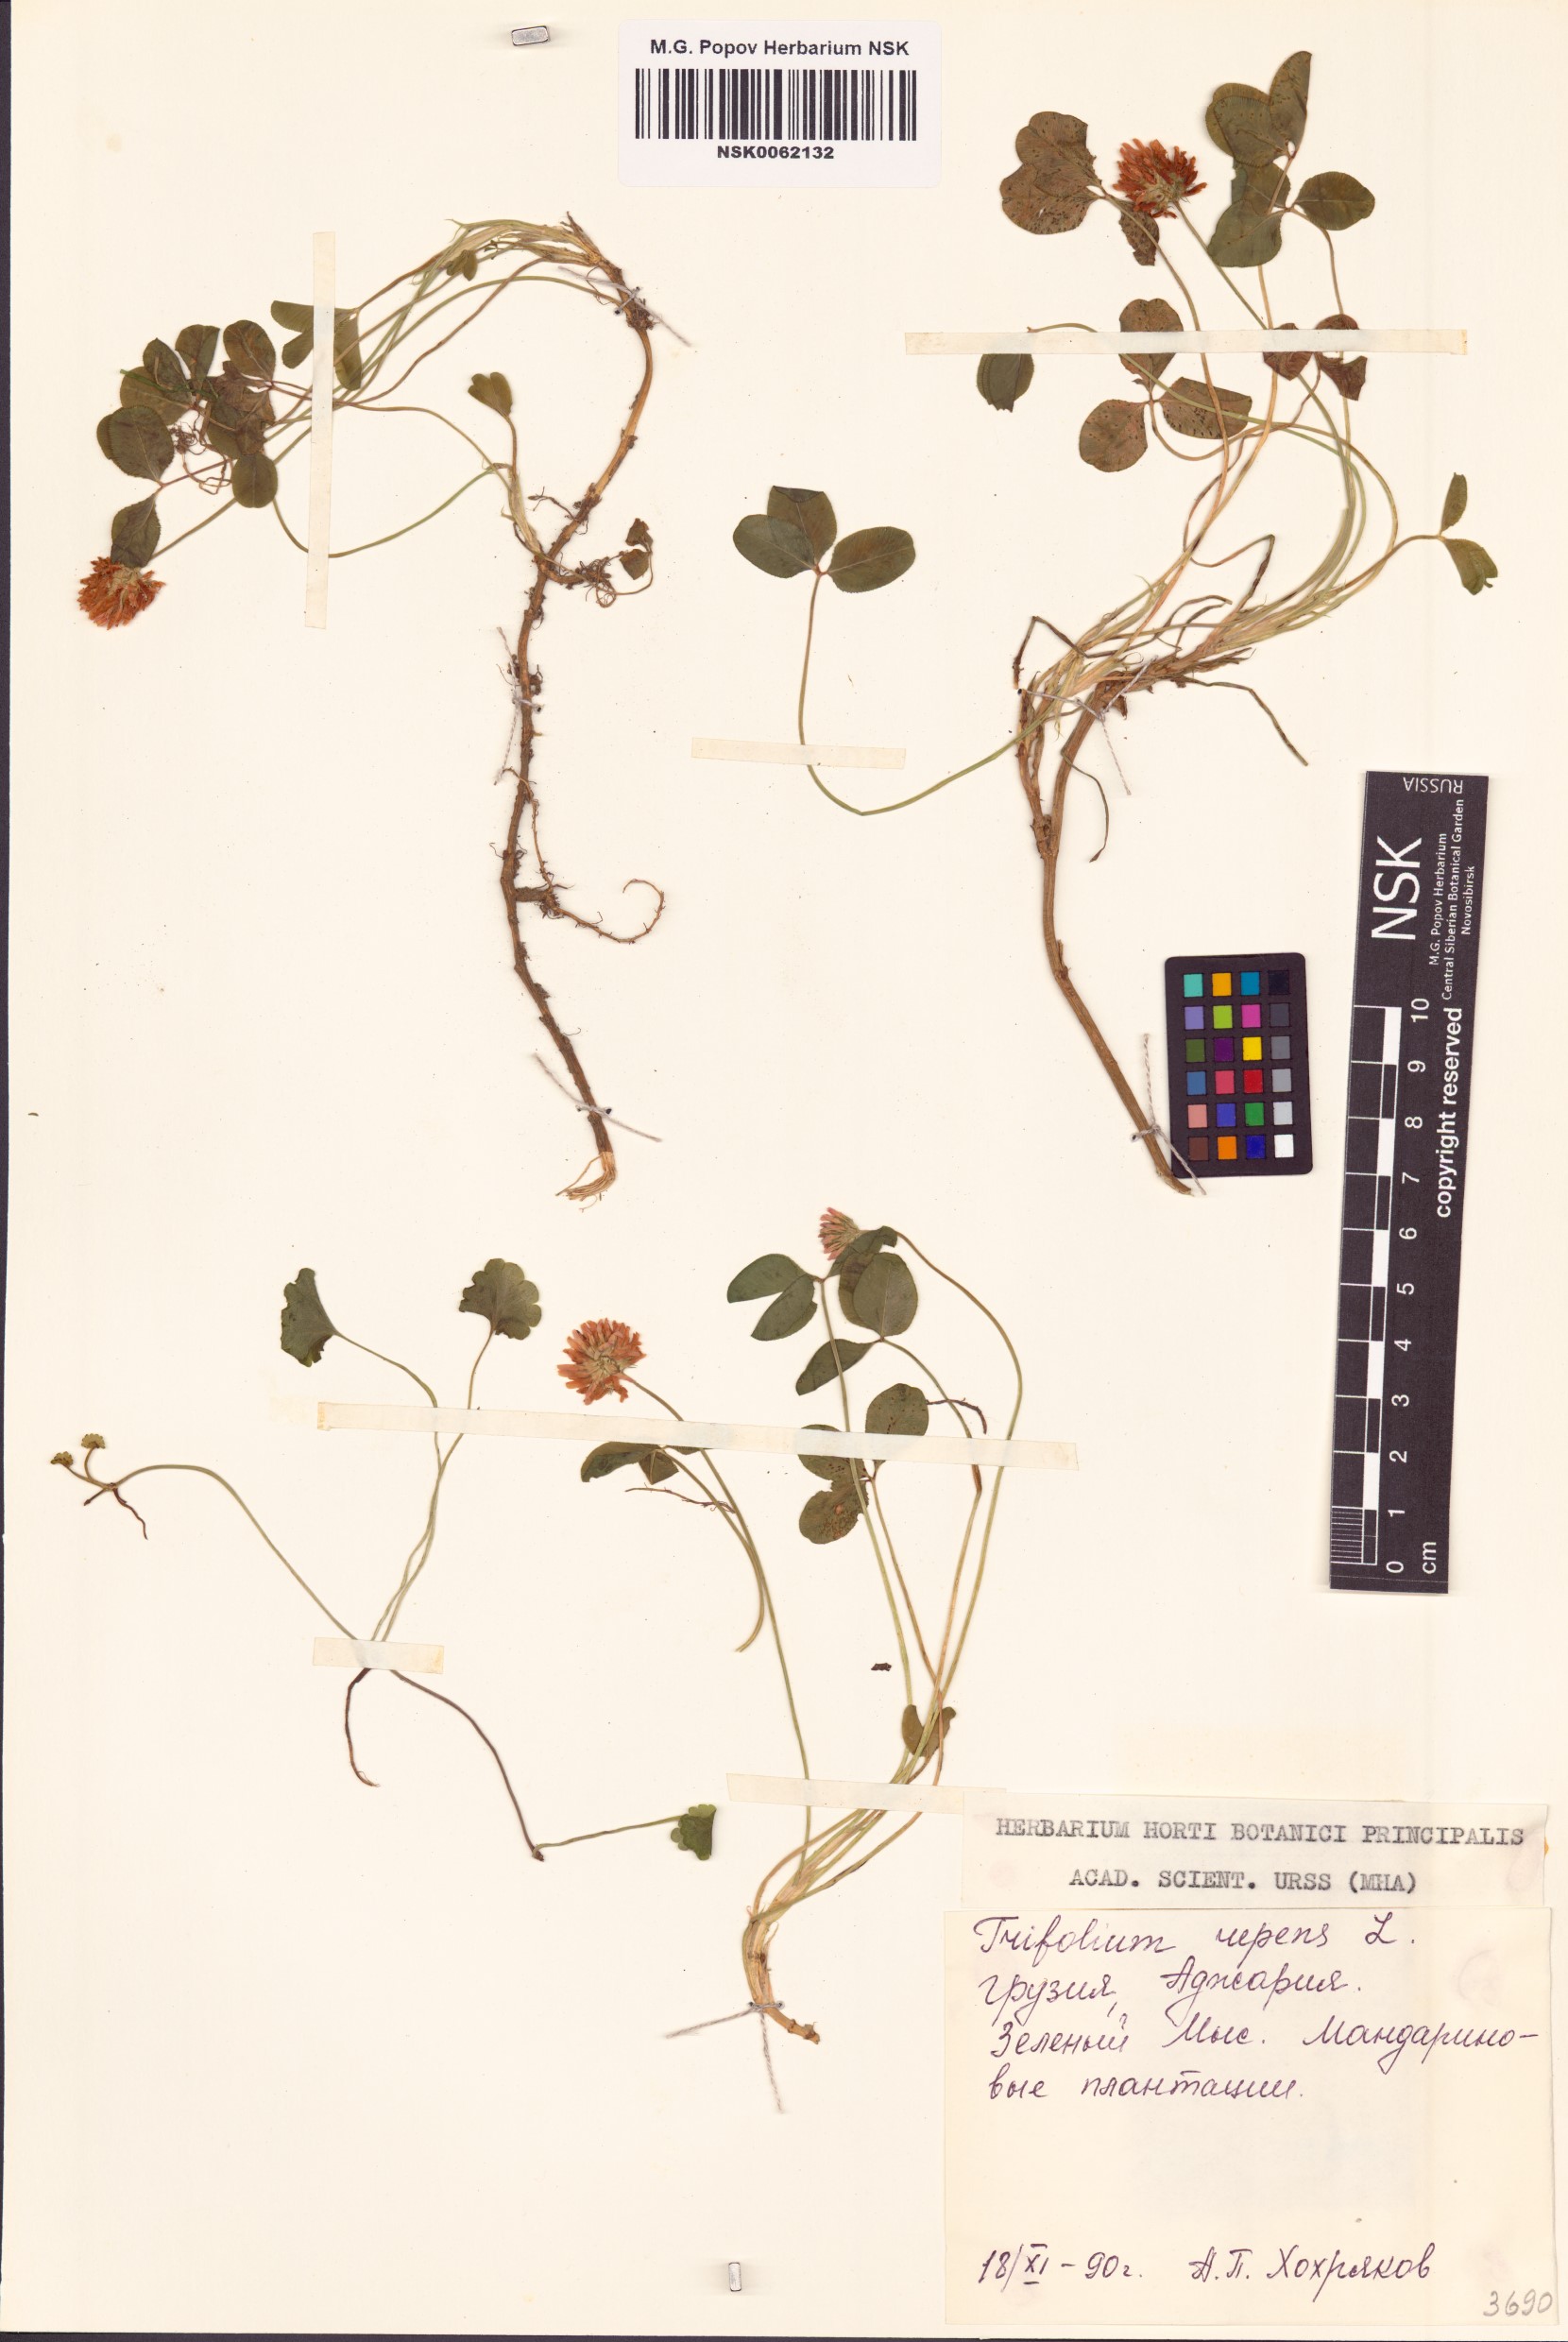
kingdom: Plantae
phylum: Tracheophyta
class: Magnoliopsida
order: Fabales
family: Fabaceae
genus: Trifolium
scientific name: Trifolium repens
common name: White clover
